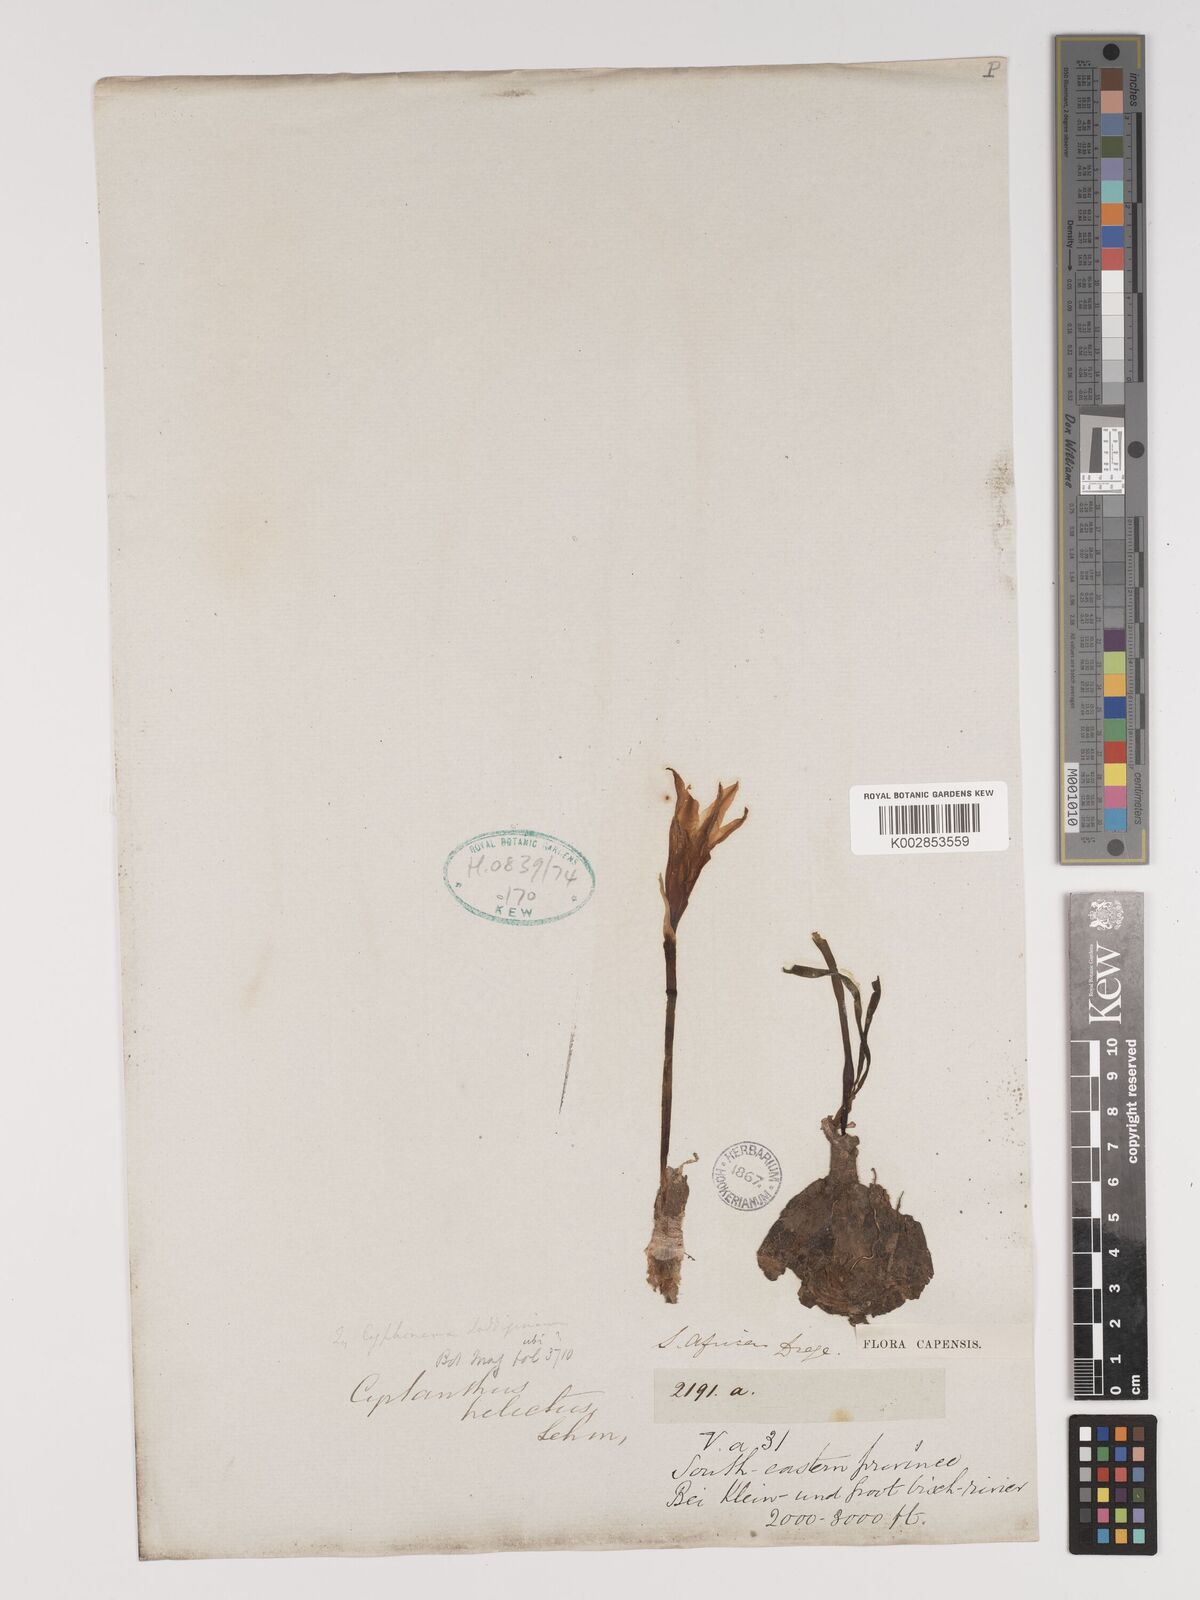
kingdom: Plantae
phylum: Tracheophyta
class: Liliopsida
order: Asparagales
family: Amaryllidaceae
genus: Cyrtanthus
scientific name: Cyrtanthus helictus
